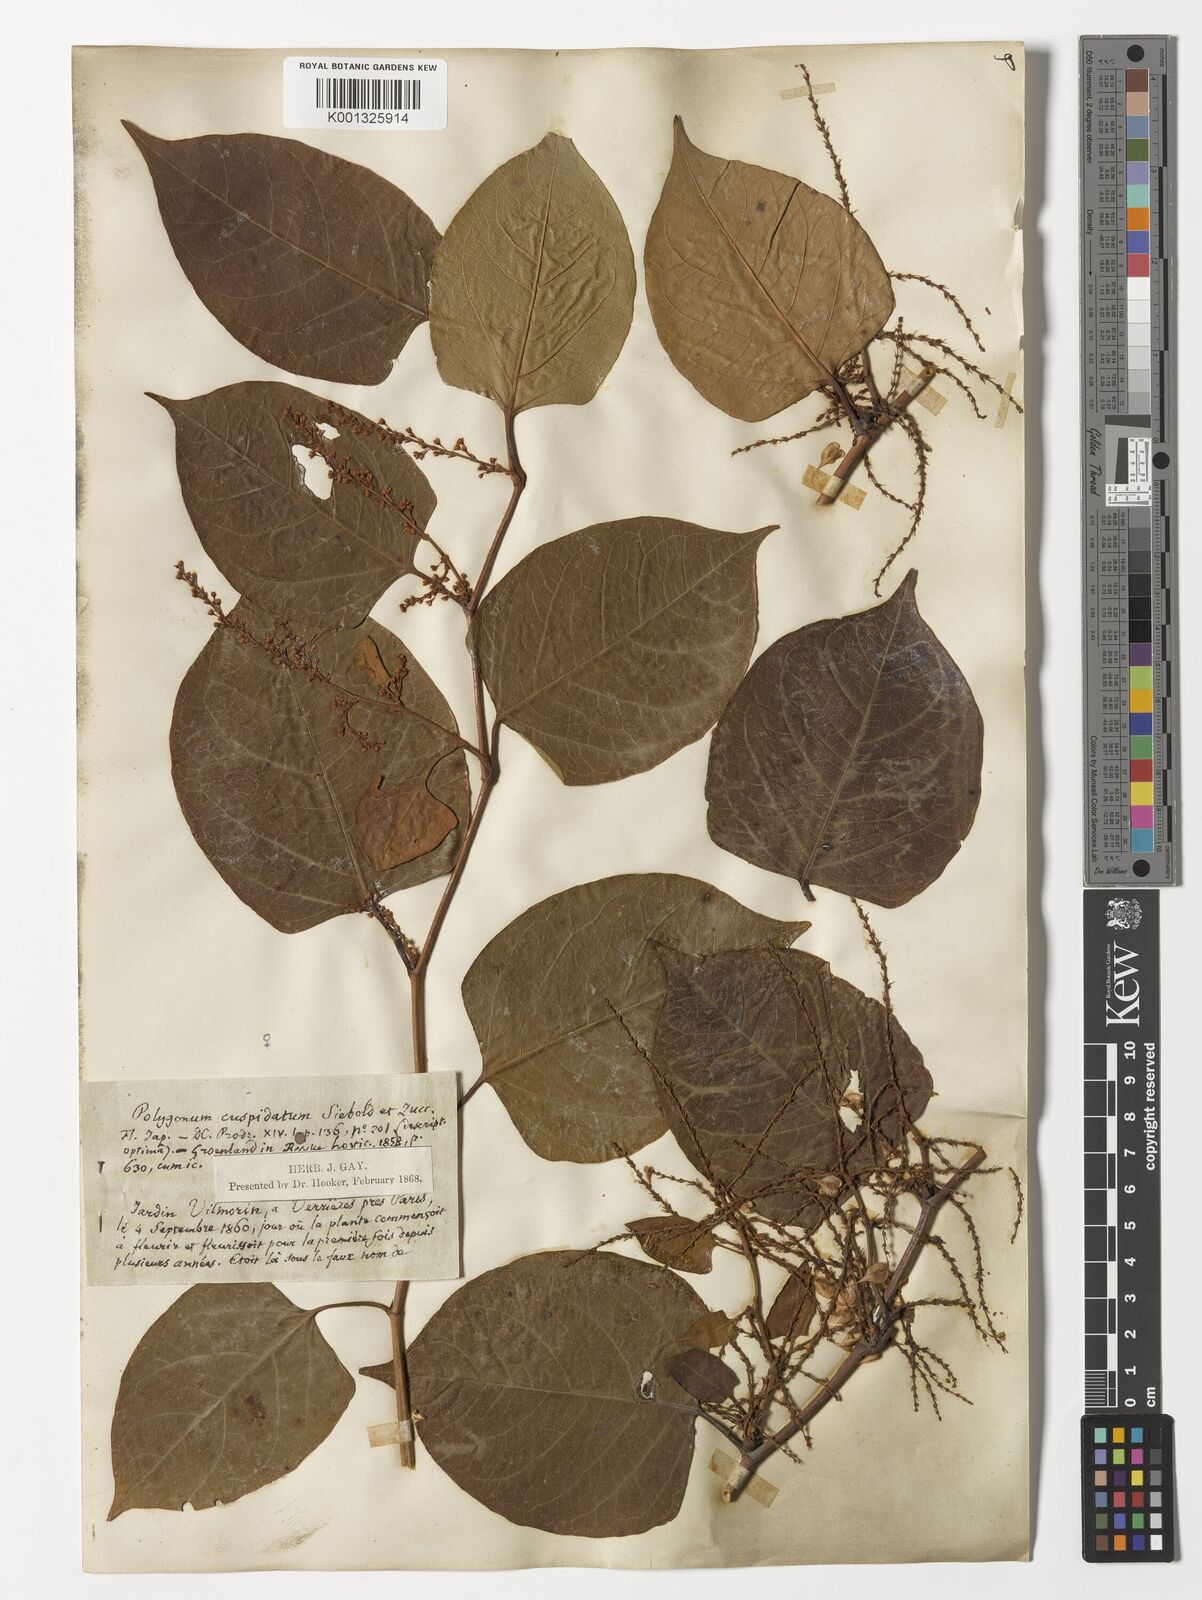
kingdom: Plantae
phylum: Tracheophyta
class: Magnoliopsida
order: Caryophyllales
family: Polygonaceae
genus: Reynoutria
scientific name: Reynoutria japonica
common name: Japanese knotweed
